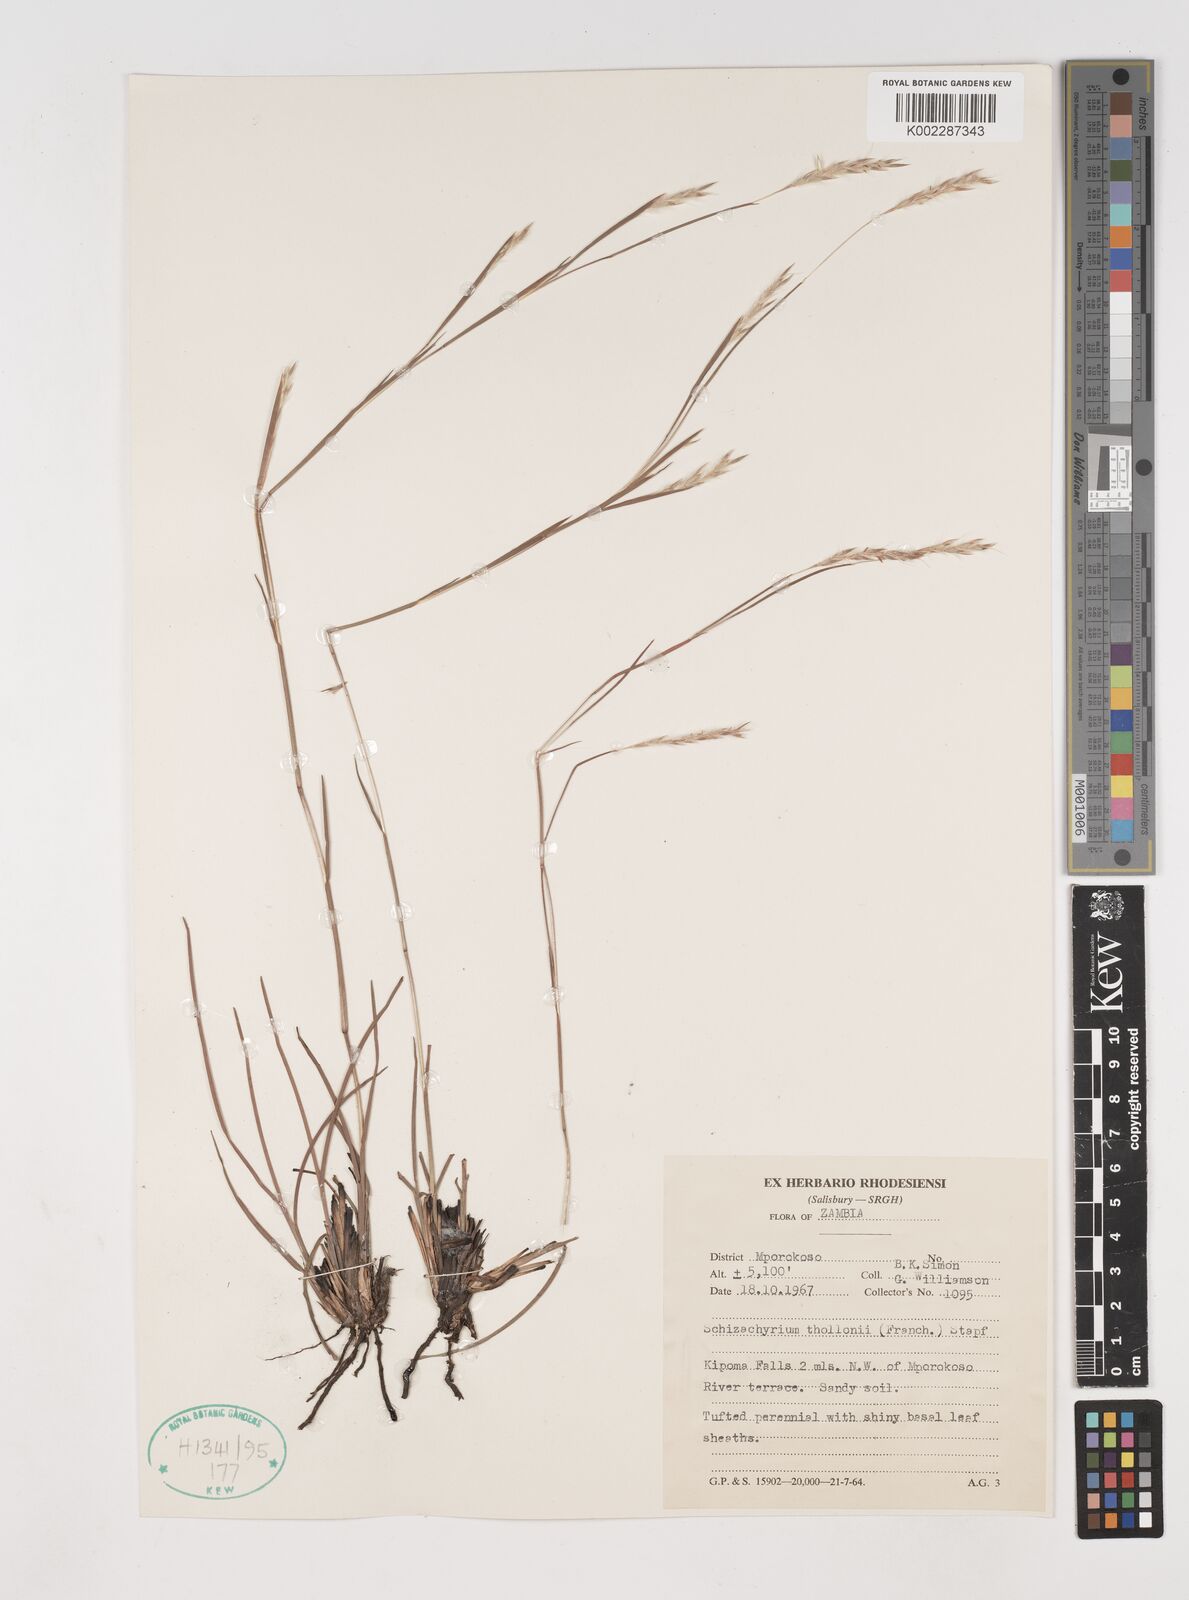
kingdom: Plantae
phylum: Tracheophyta
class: Liliopsida
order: Poales
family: Poaceae
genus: Andropogon
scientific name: Andropogon schweinfurthii
